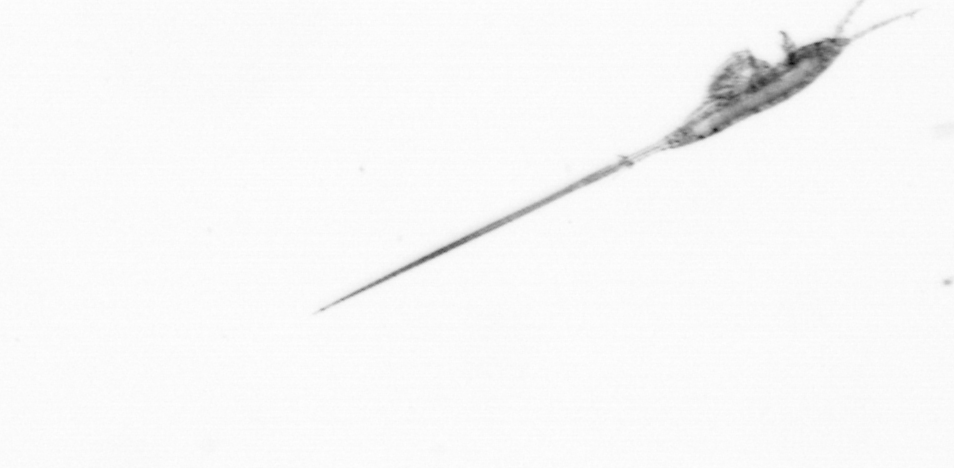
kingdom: Animalia
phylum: Arthropoda
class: Copepoda
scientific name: Copepoda
